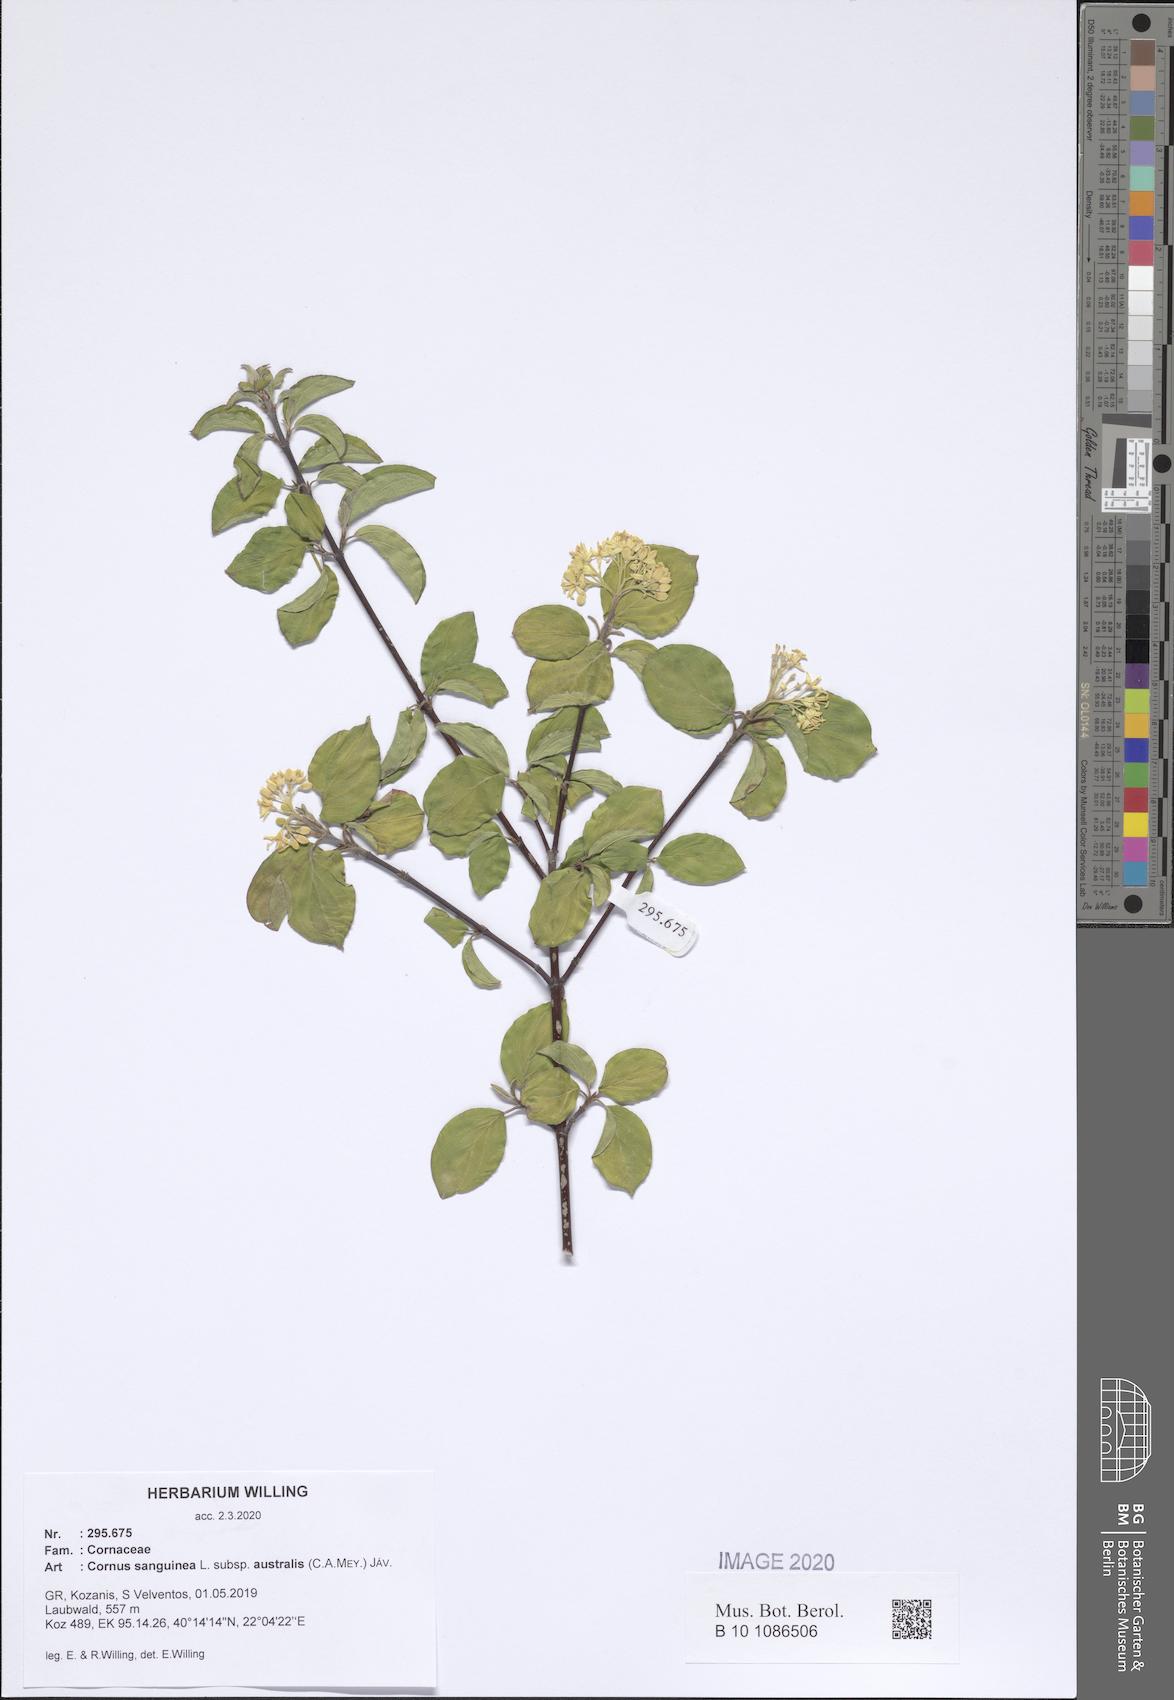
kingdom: Plantae
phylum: Tracheophyta
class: Magnoliopsida
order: Cornales
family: Cornaceae
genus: Cornus
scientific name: Cornus sanguinea
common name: Dogwood
